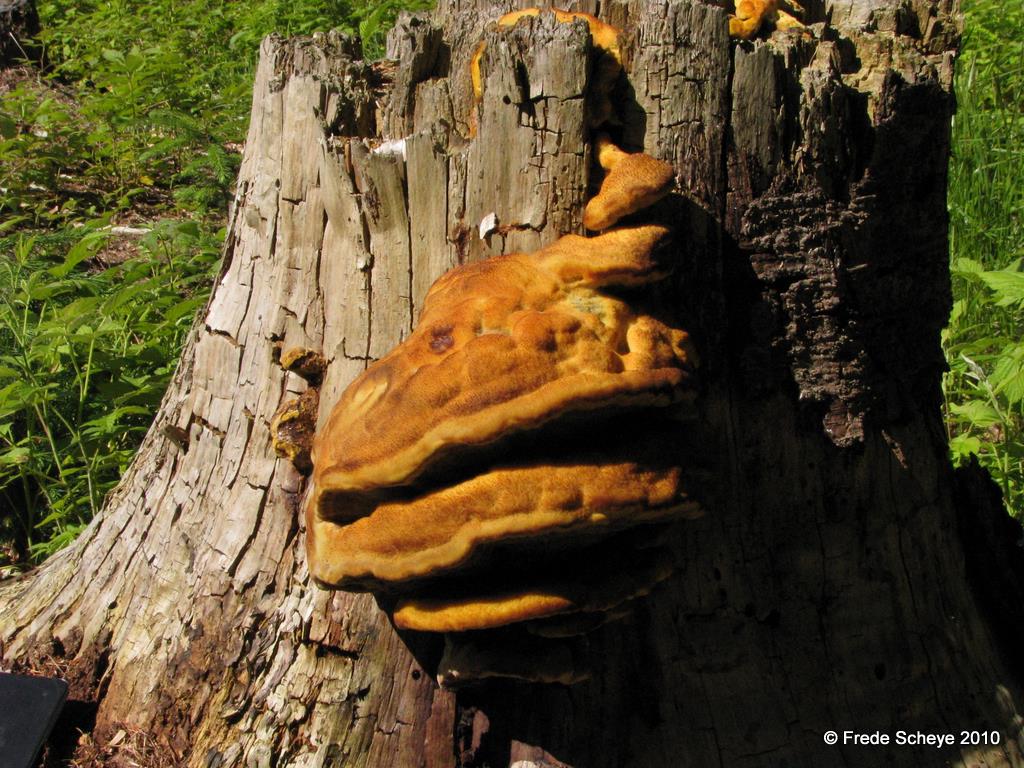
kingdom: Fungi
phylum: Basidiomycota
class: Agaricomycetes
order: Polyporales
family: Laetiporaceae
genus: Phaeolus
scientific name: Phaeolus schweinitzii
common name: brunporesvamp
